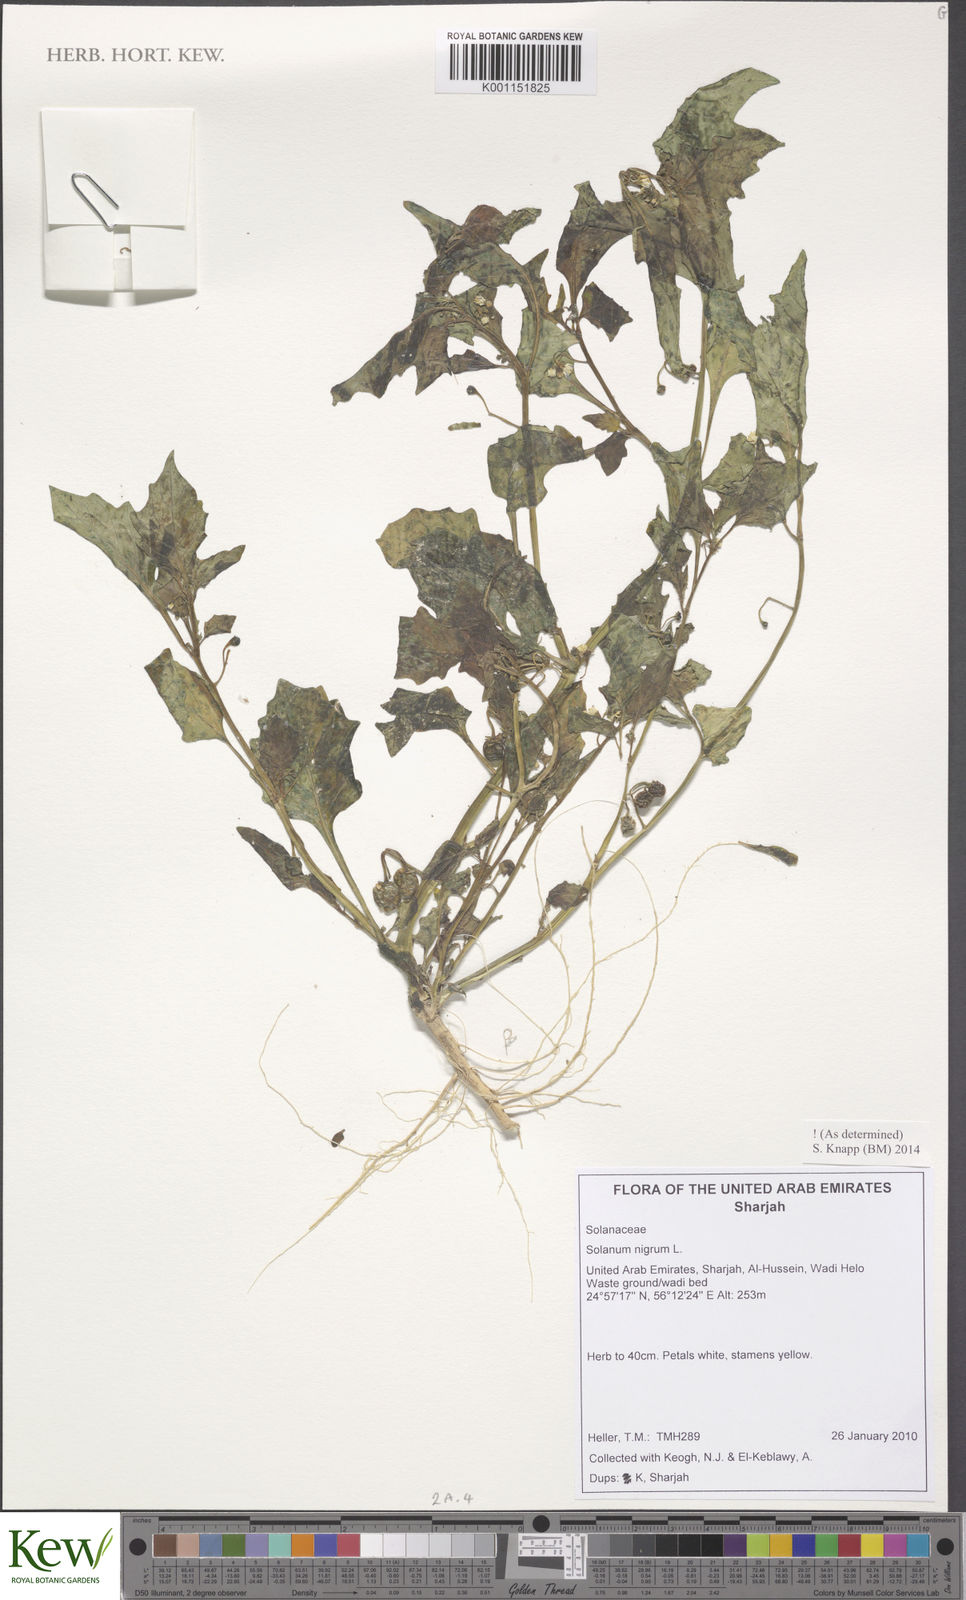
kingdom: Plantae
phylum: Tracheophyta
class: Magnoliopsida
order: Solanales
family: Solanaceae
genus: Solanum
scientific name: Solanum villosum
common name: Red nightshade
